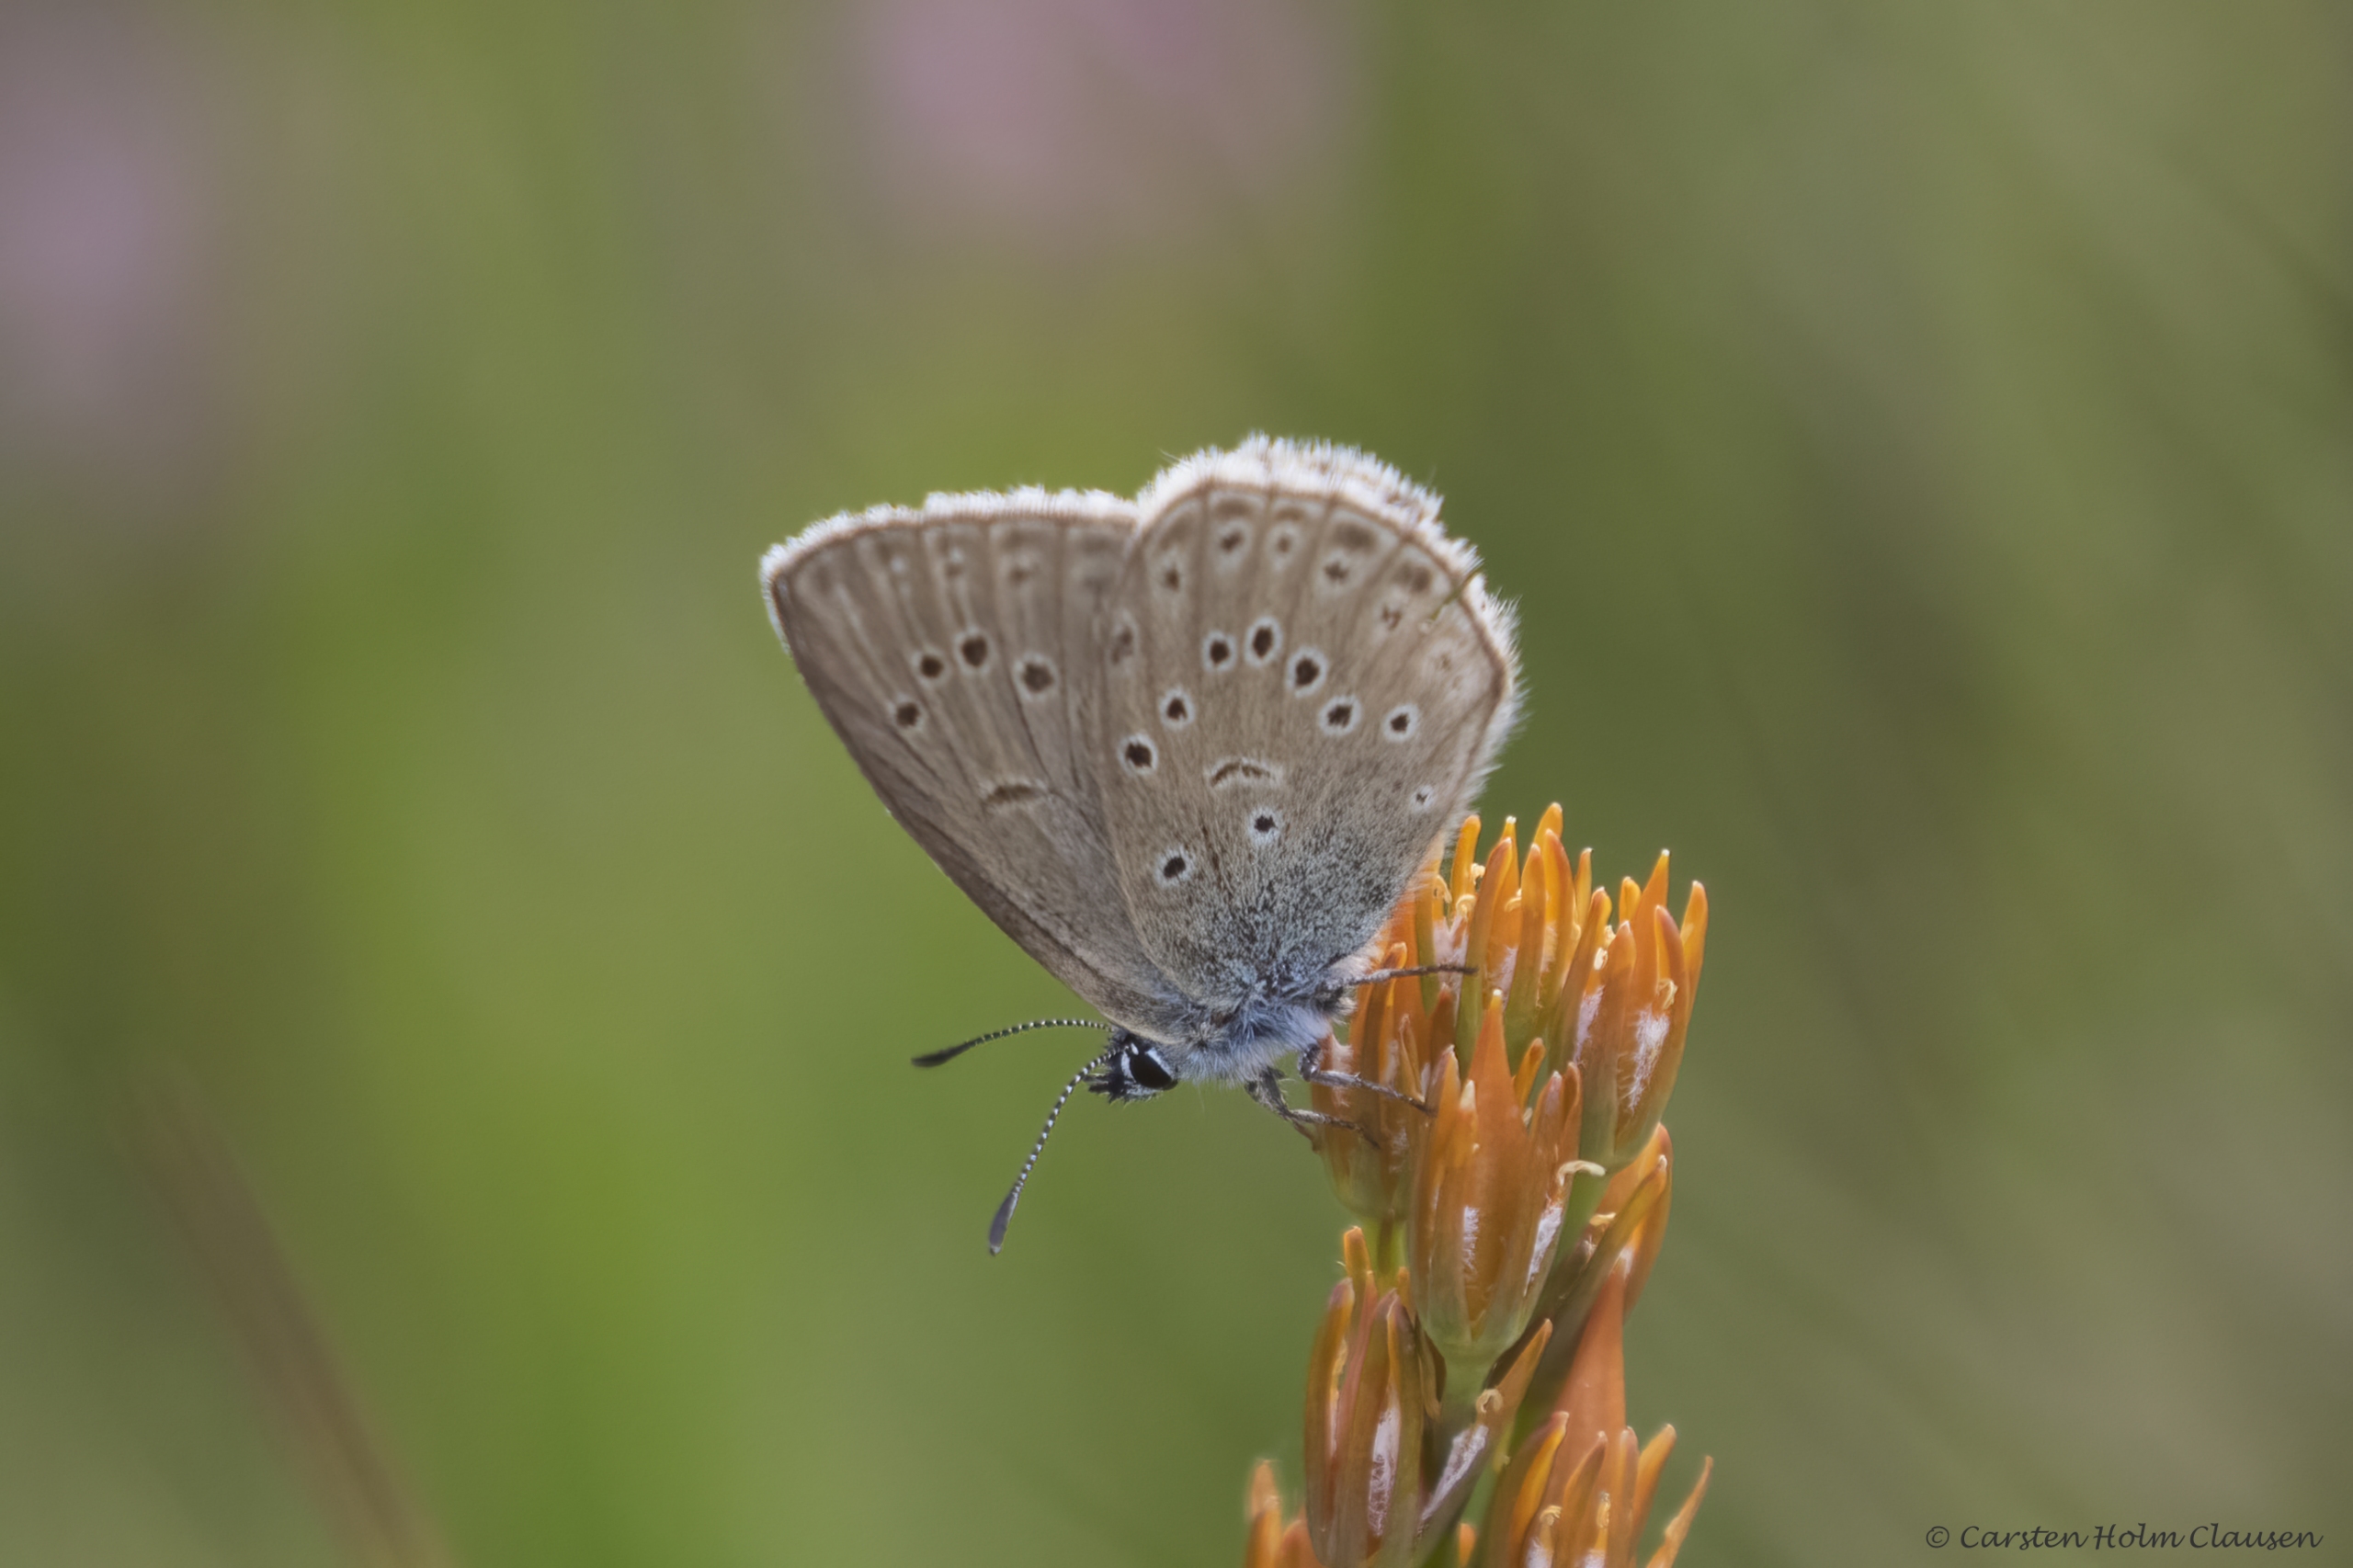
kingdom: Animalia
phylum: Arthropoda
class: Insecta
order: Lepidoptera
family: Lycaenidae
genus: Maculinea
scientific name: Maculinea alcon
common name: Ensianblåfugl
